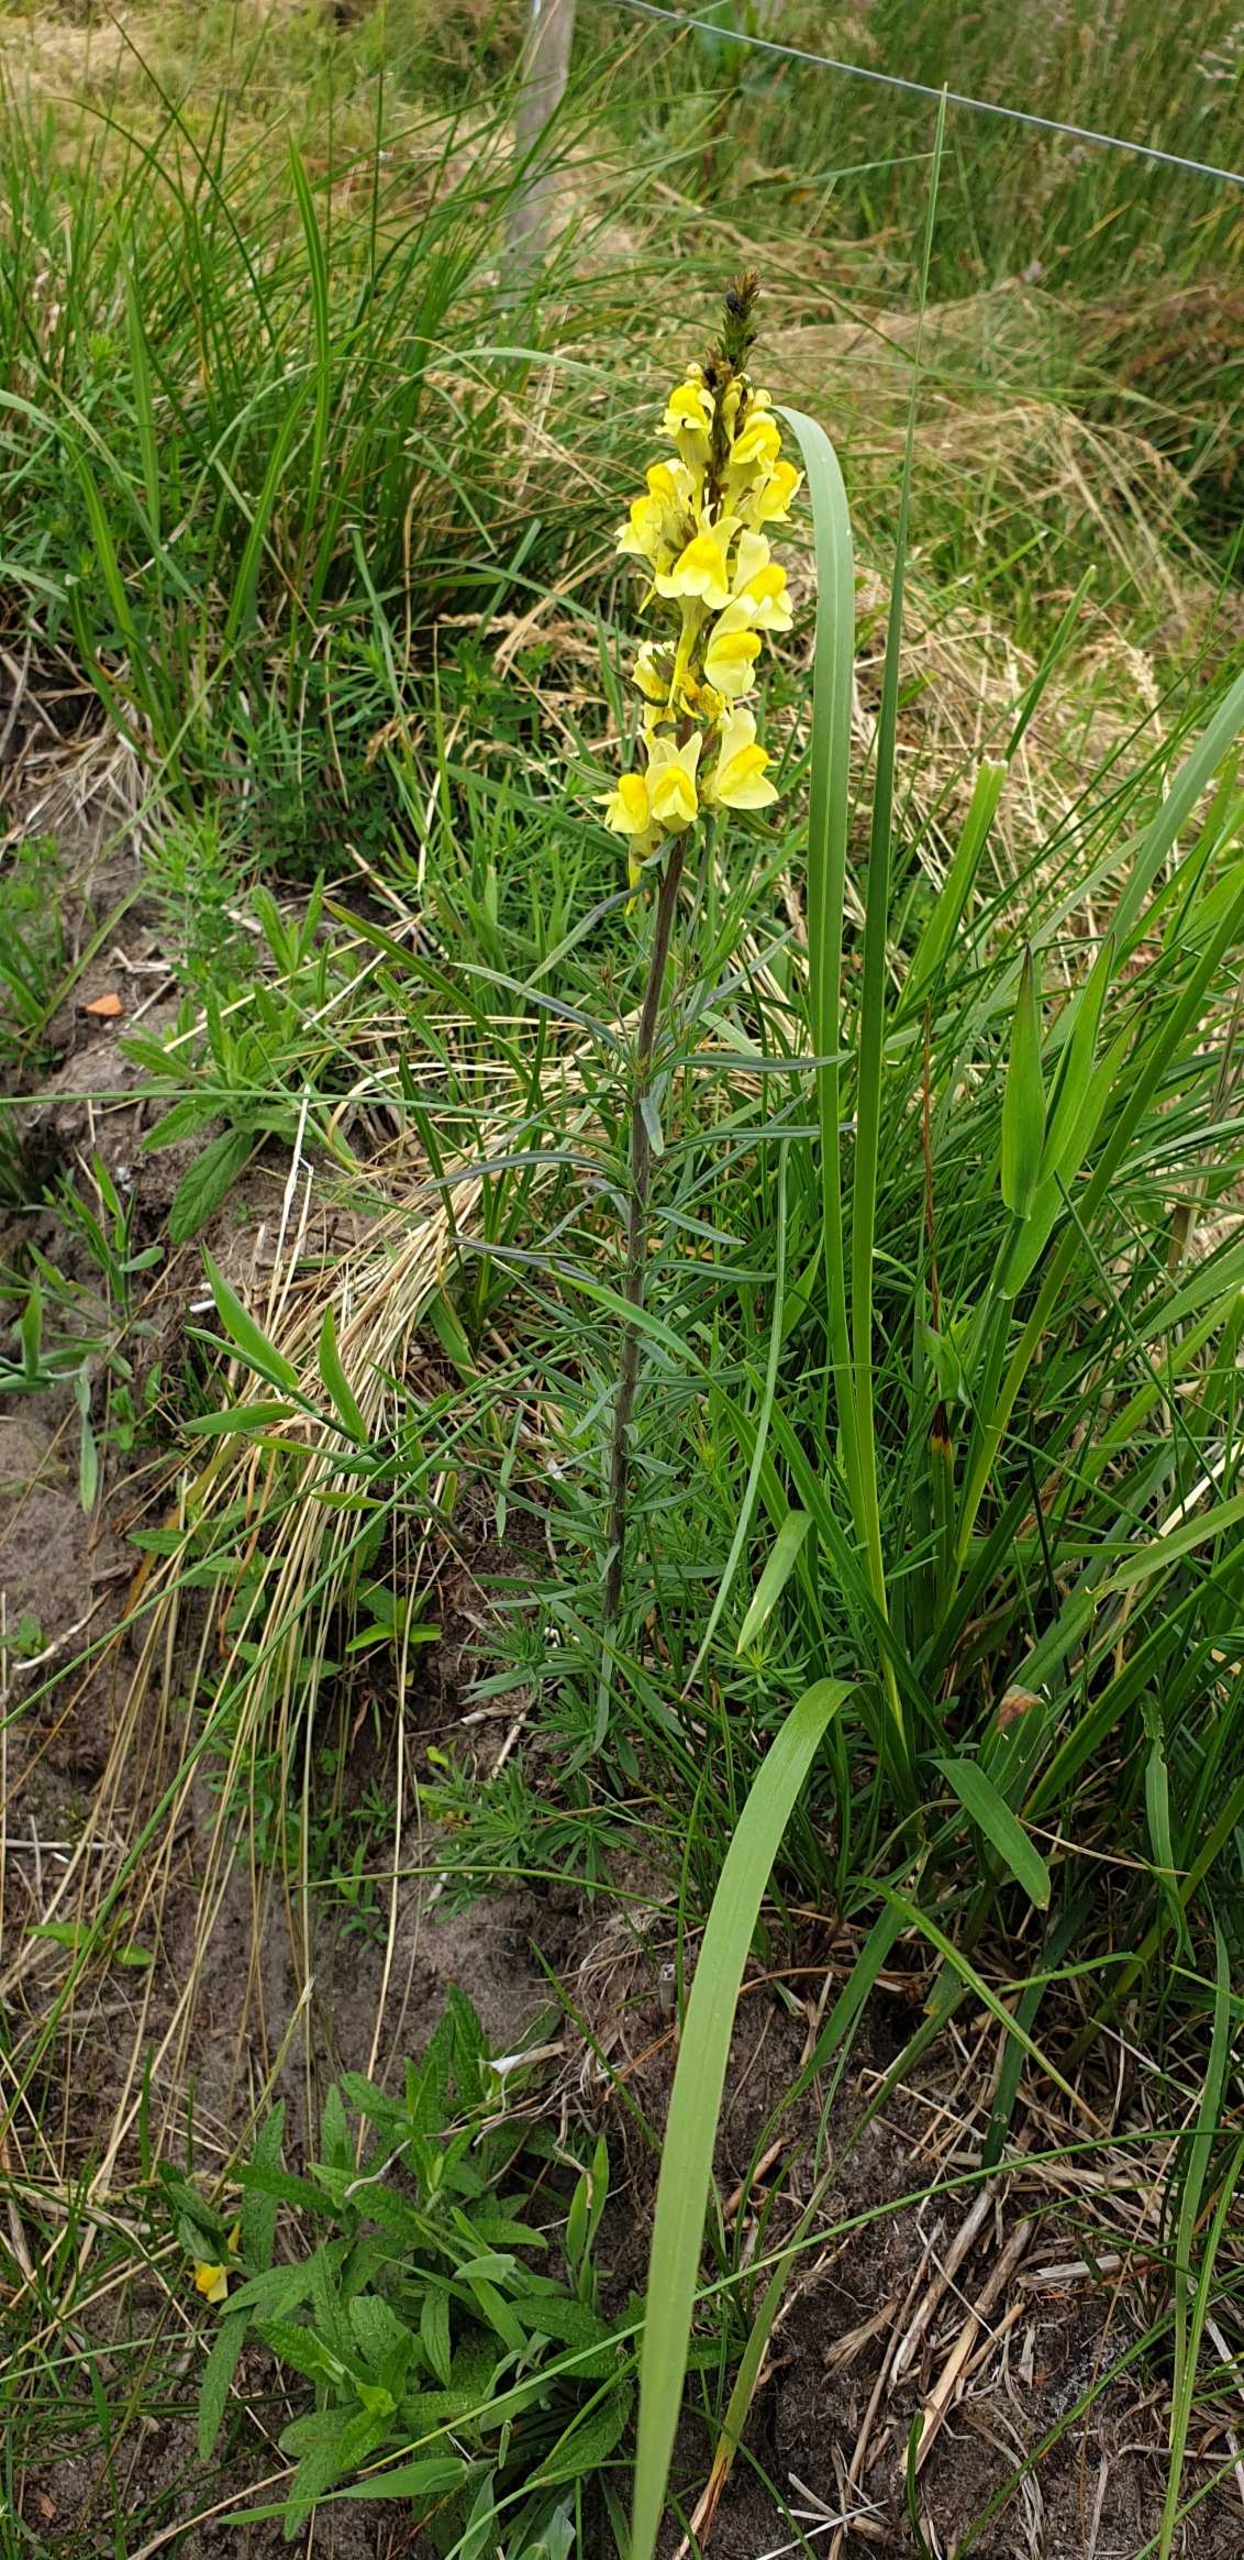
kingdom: Plantae
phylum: Tracheophyta
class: Magnoliopsida
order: Lamiales
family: Plantaginaceae
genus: Linaria
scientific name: Linaria vulgaris
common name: Almindelig torskemund
